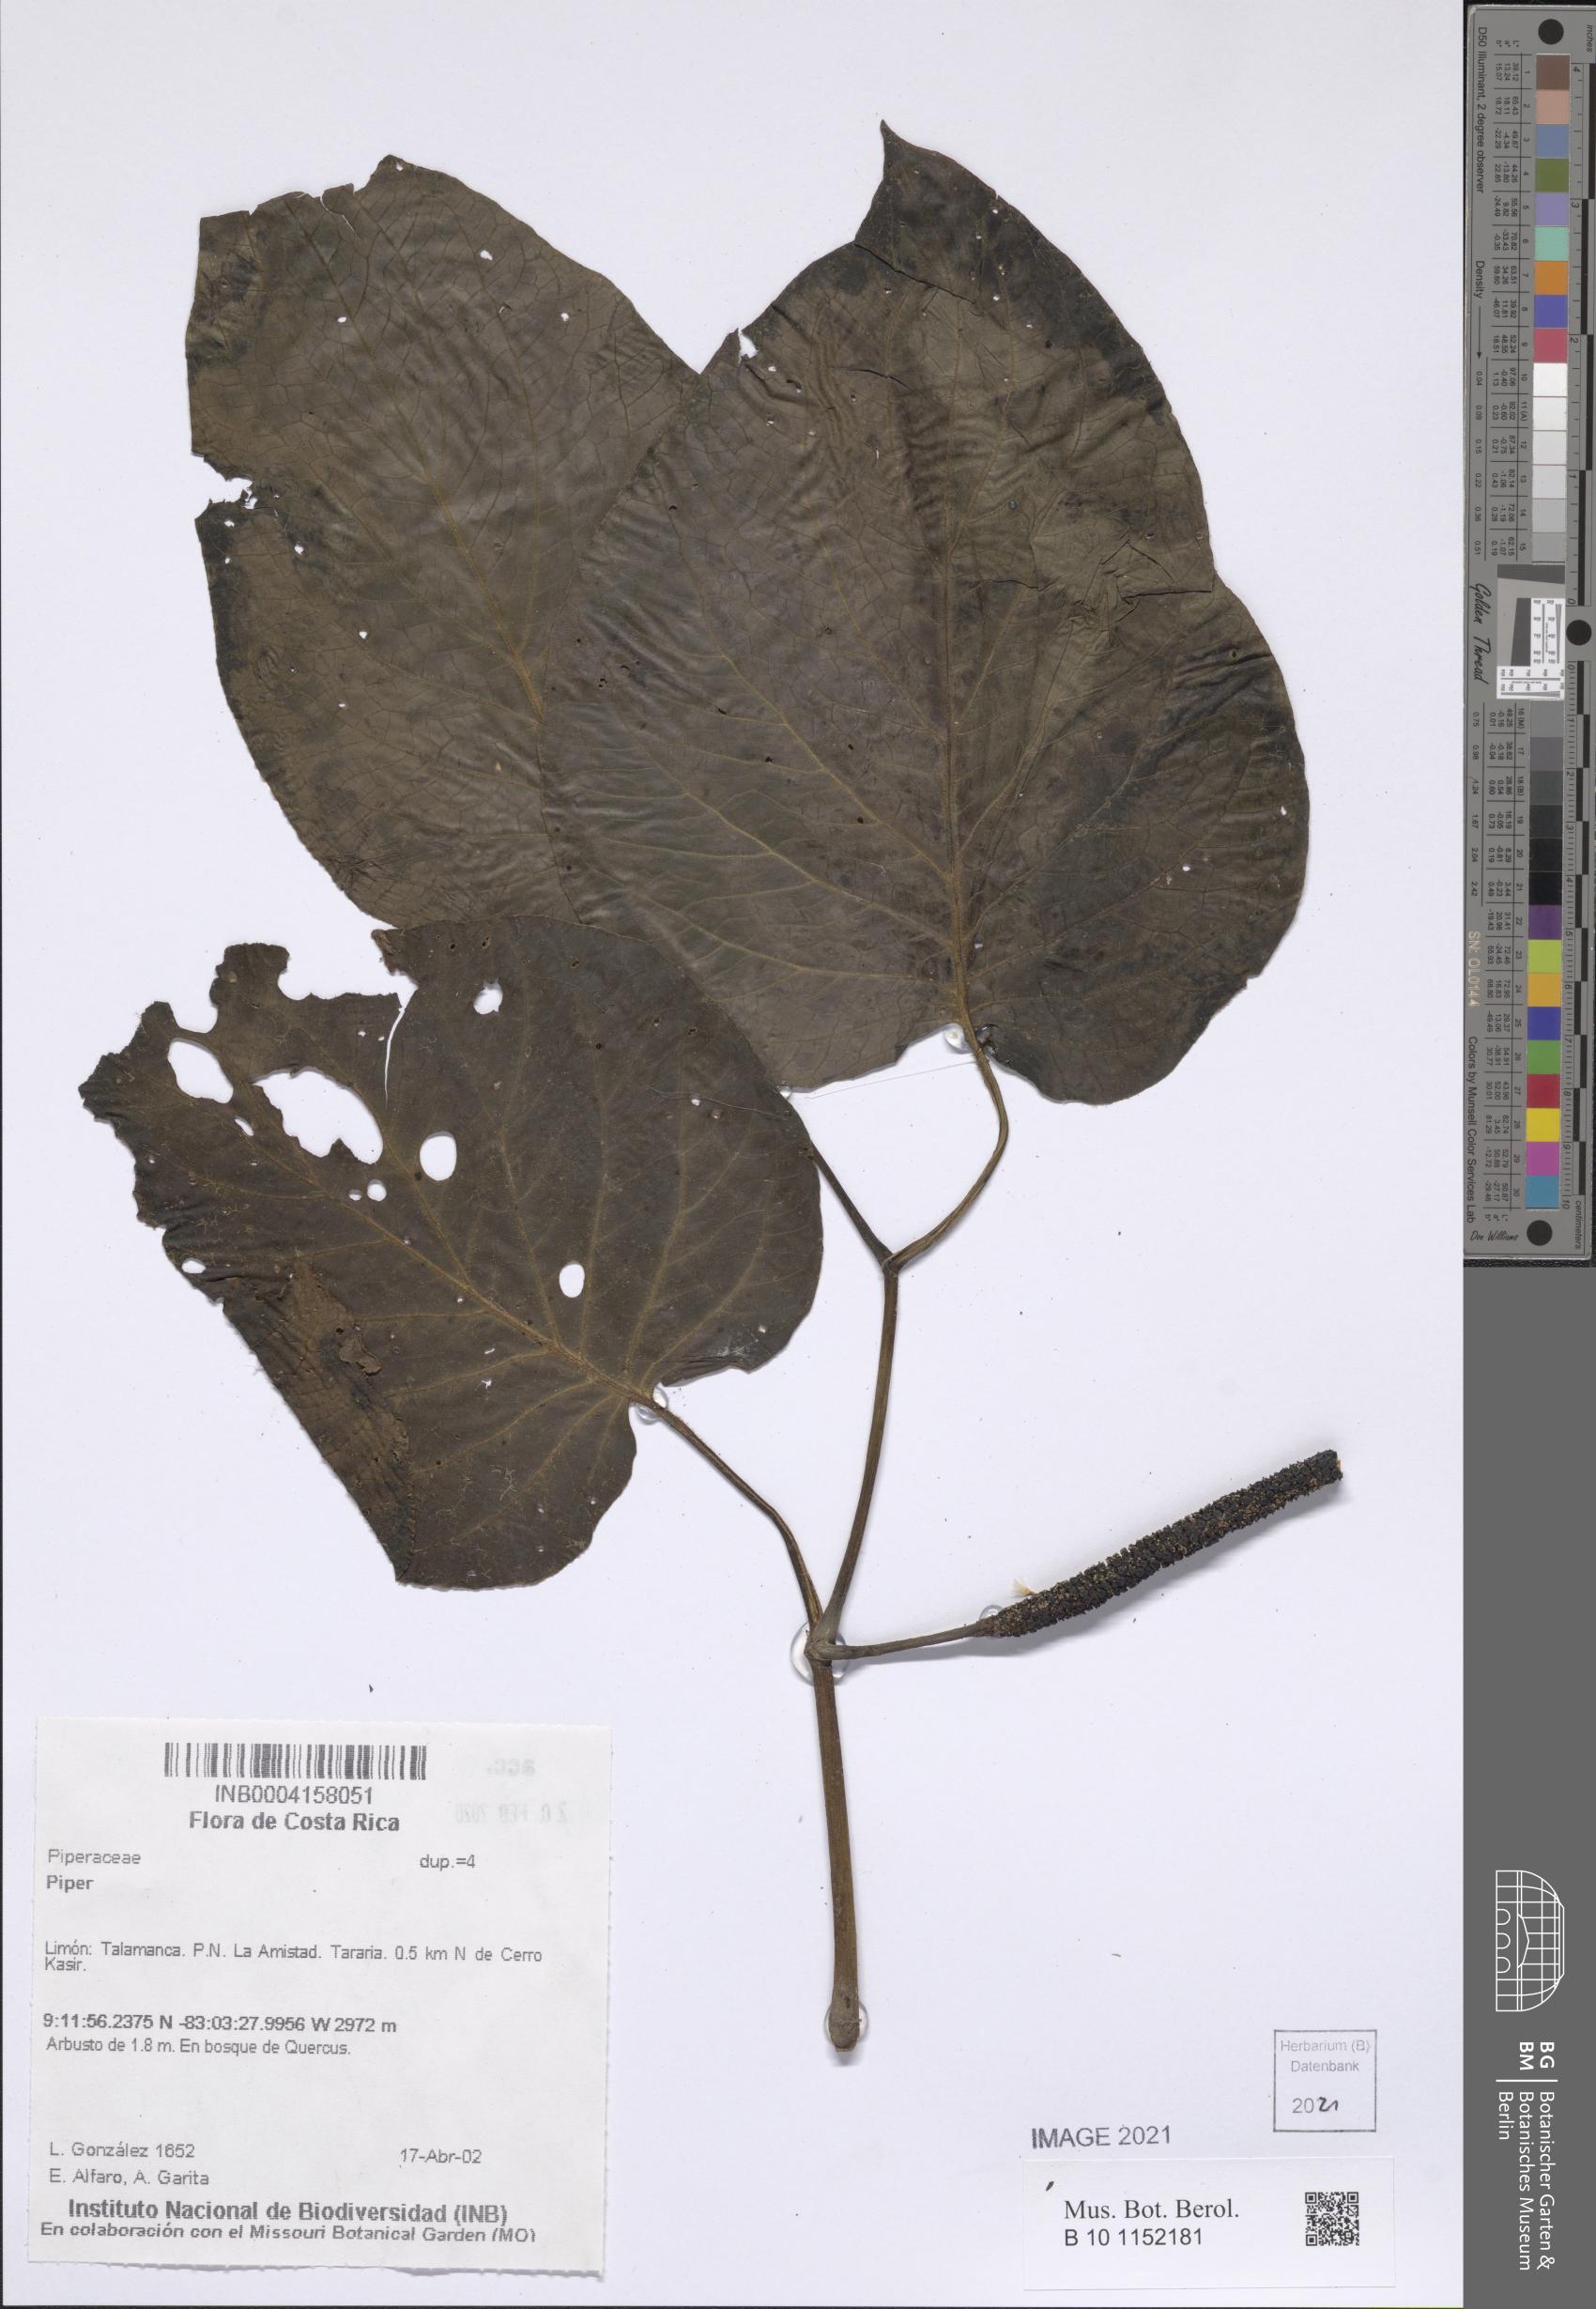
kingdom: Plantae
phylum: Tracheophyta
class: Magnoliopsida
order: Piperales
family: Piperaceae
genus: Piper
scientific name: Piper
